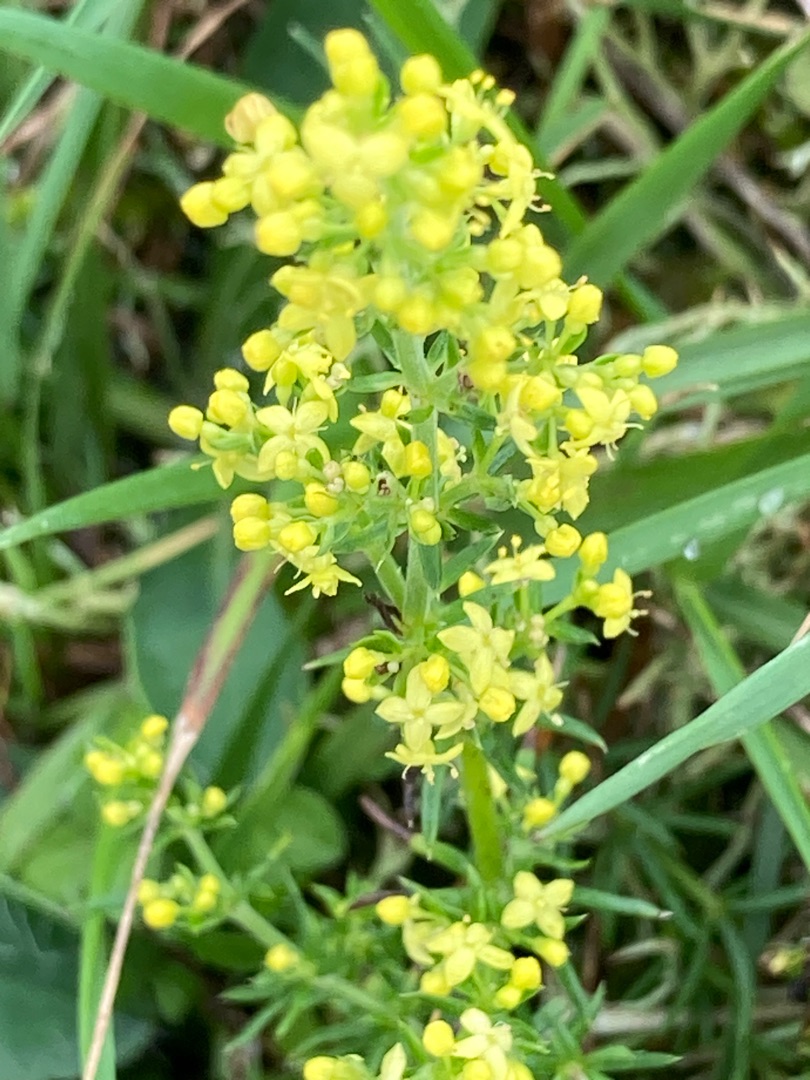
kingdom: Plantae
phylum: Tracheophyta
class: Magnoliopsida
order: Gentianales
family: Rubiaceae
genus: Galium
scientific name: Galium verum
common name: Gul snerre
